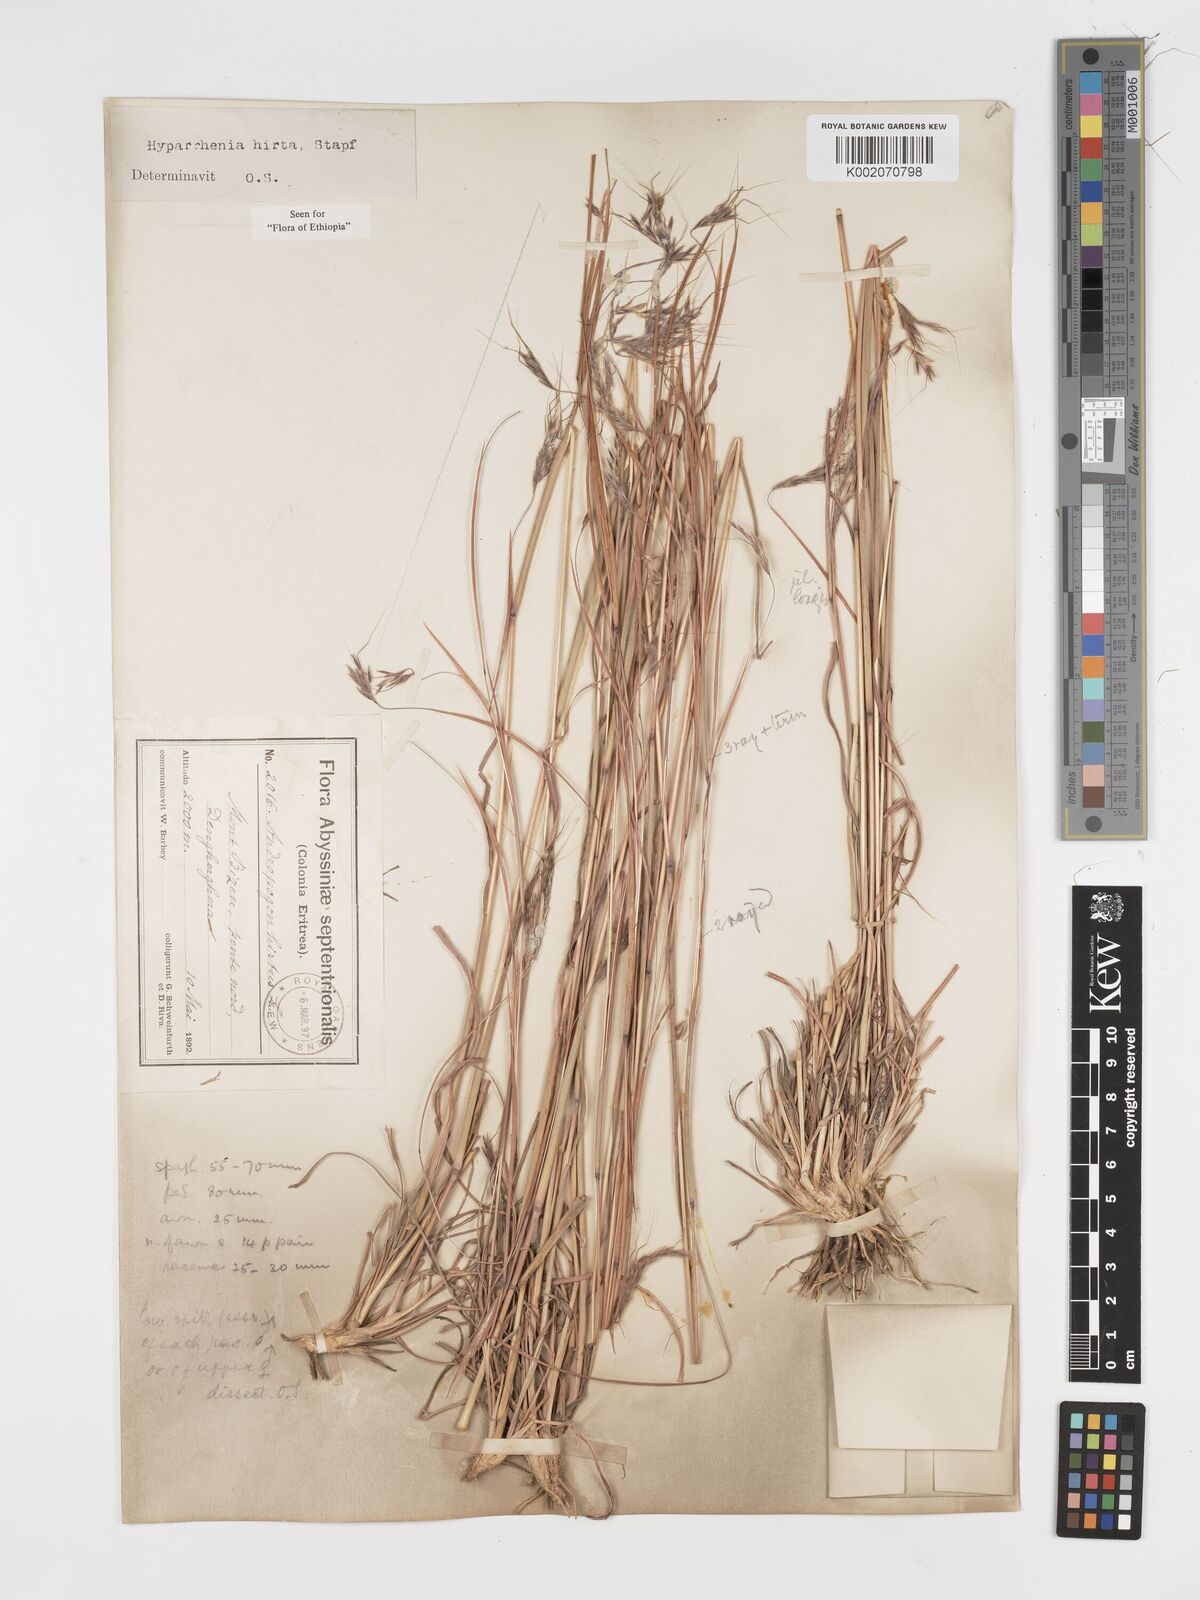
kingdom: Plantae
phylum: Tracheophyta
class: Liliopsida
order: Poales
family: Poaceae
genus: Hyparrhenia
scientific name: Hyparrhenia hirta
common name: Thatching grass
